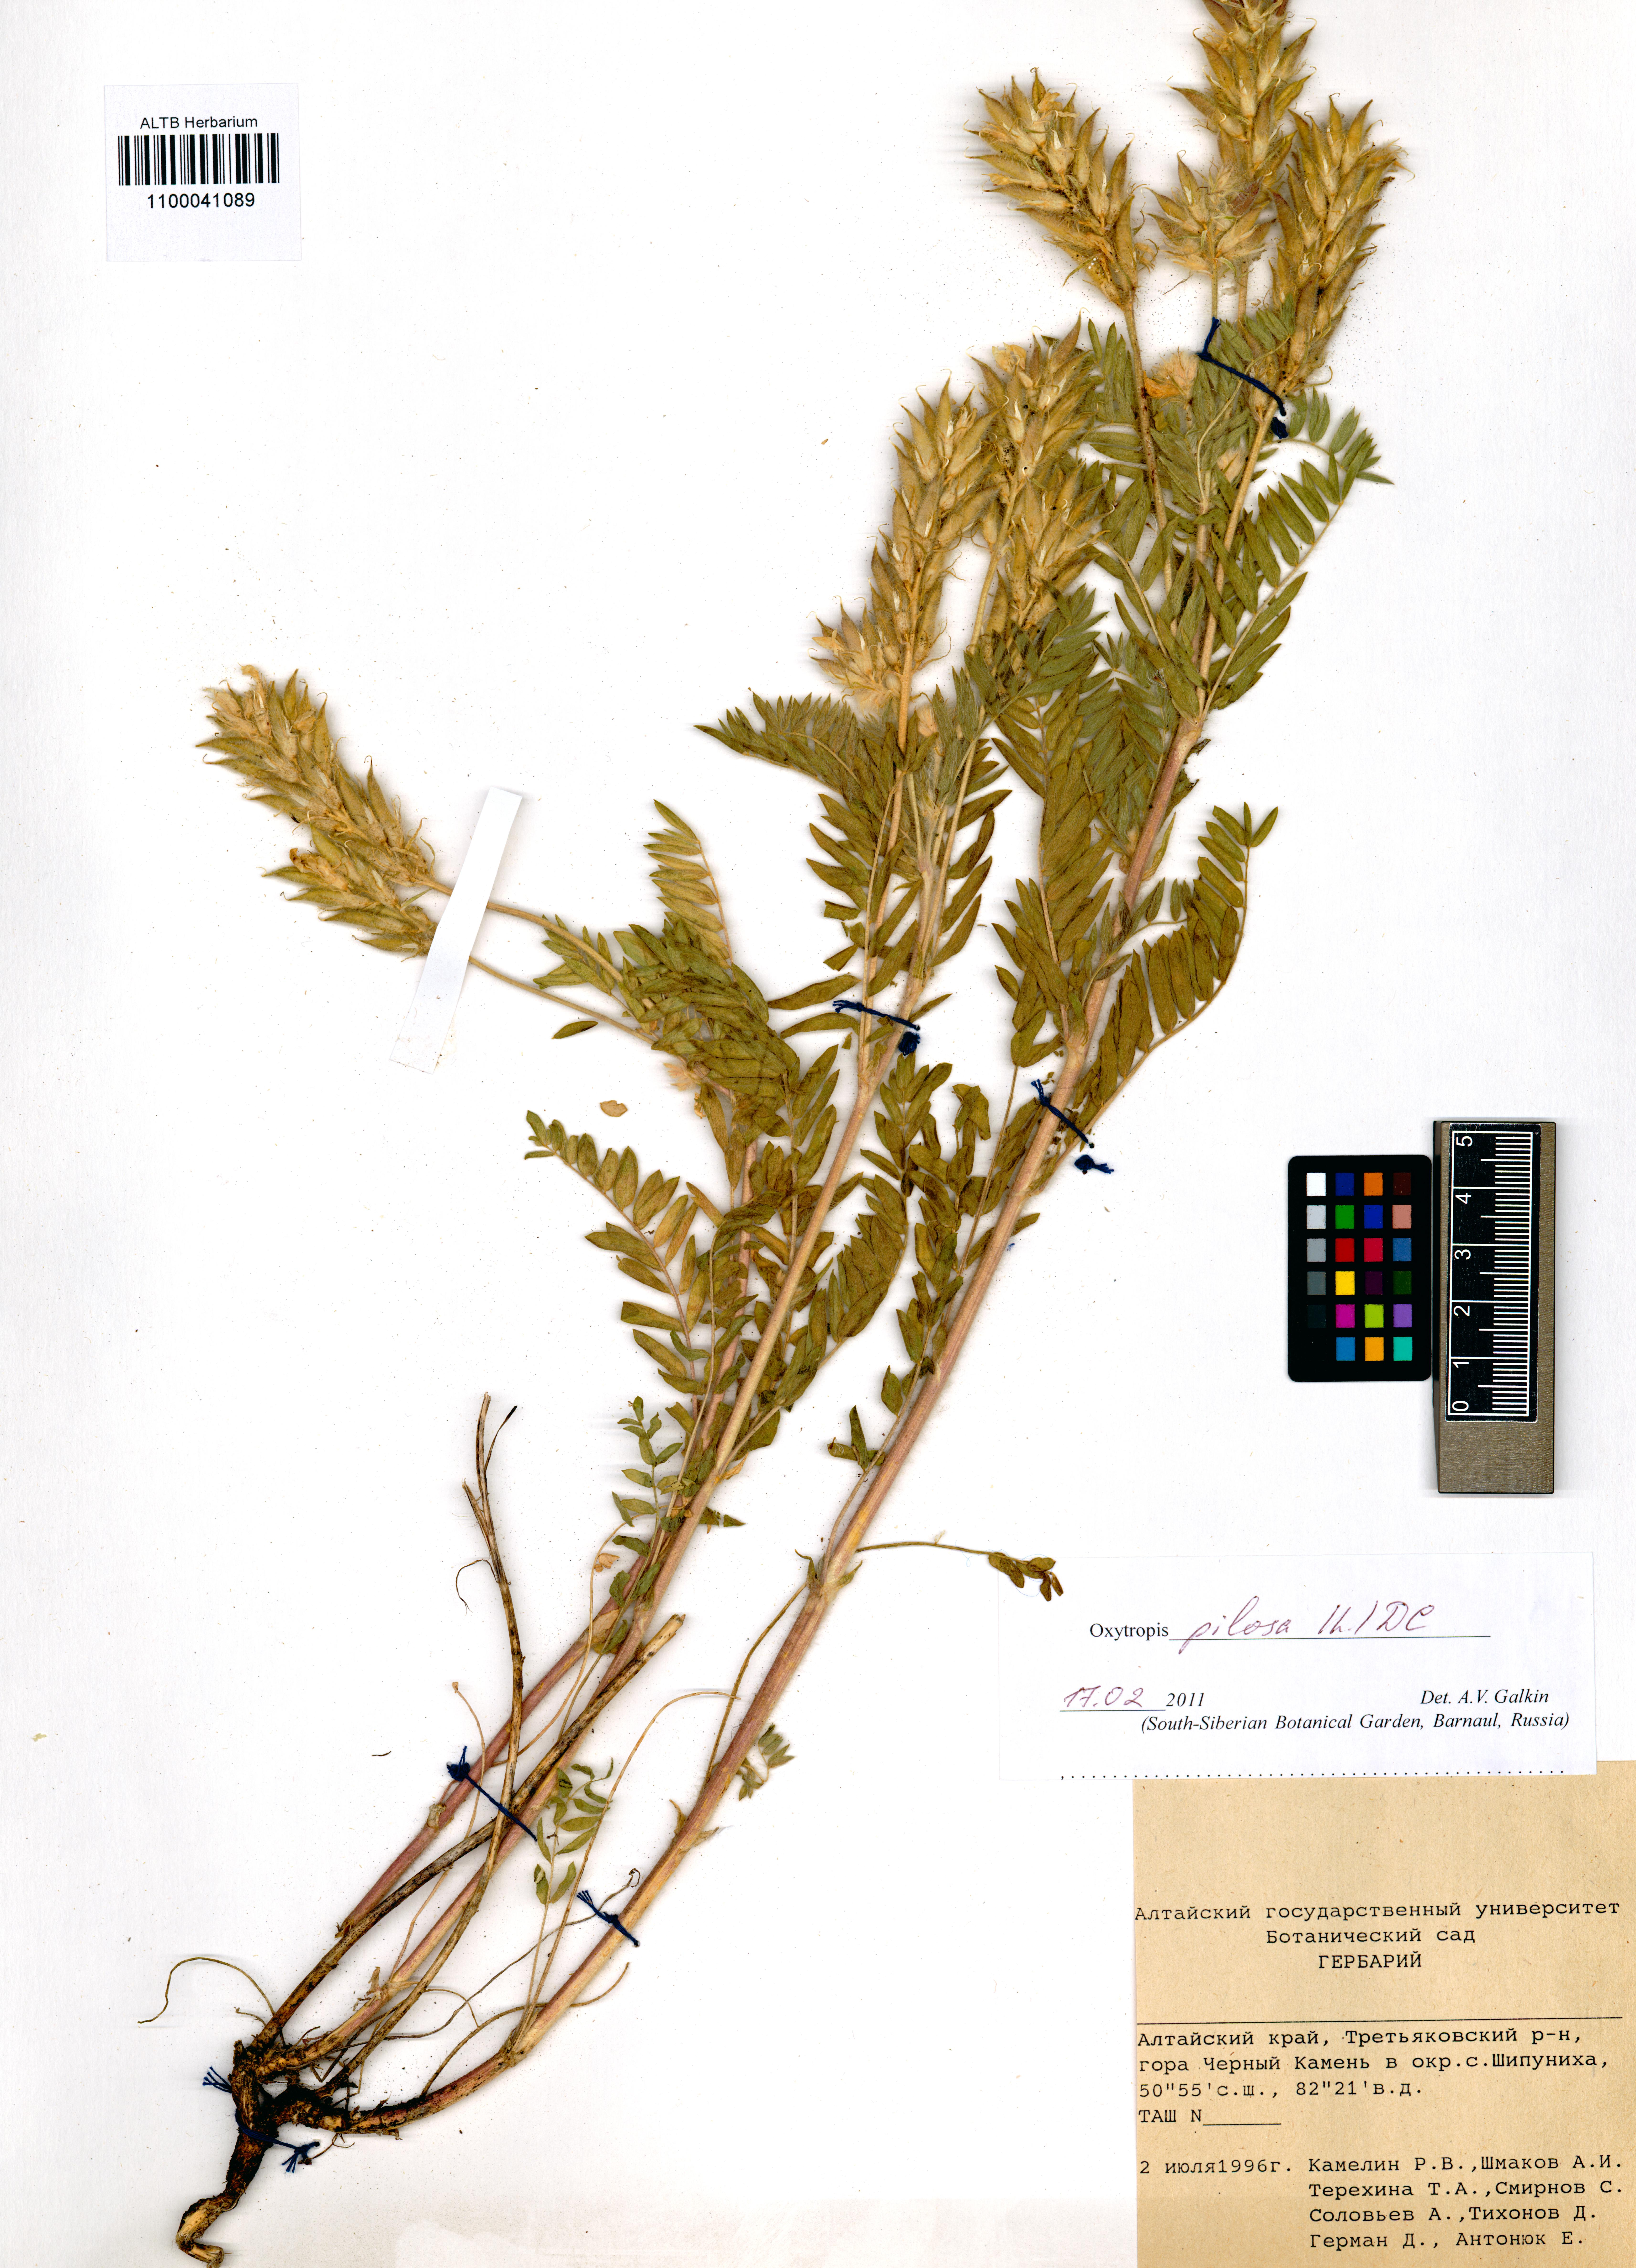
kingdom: Plantae
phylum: Tracheophyta
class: Magnoliopsida
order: Fabales
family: Fabaceae
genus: Oxytropis
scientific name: Oxytropis pilosa
